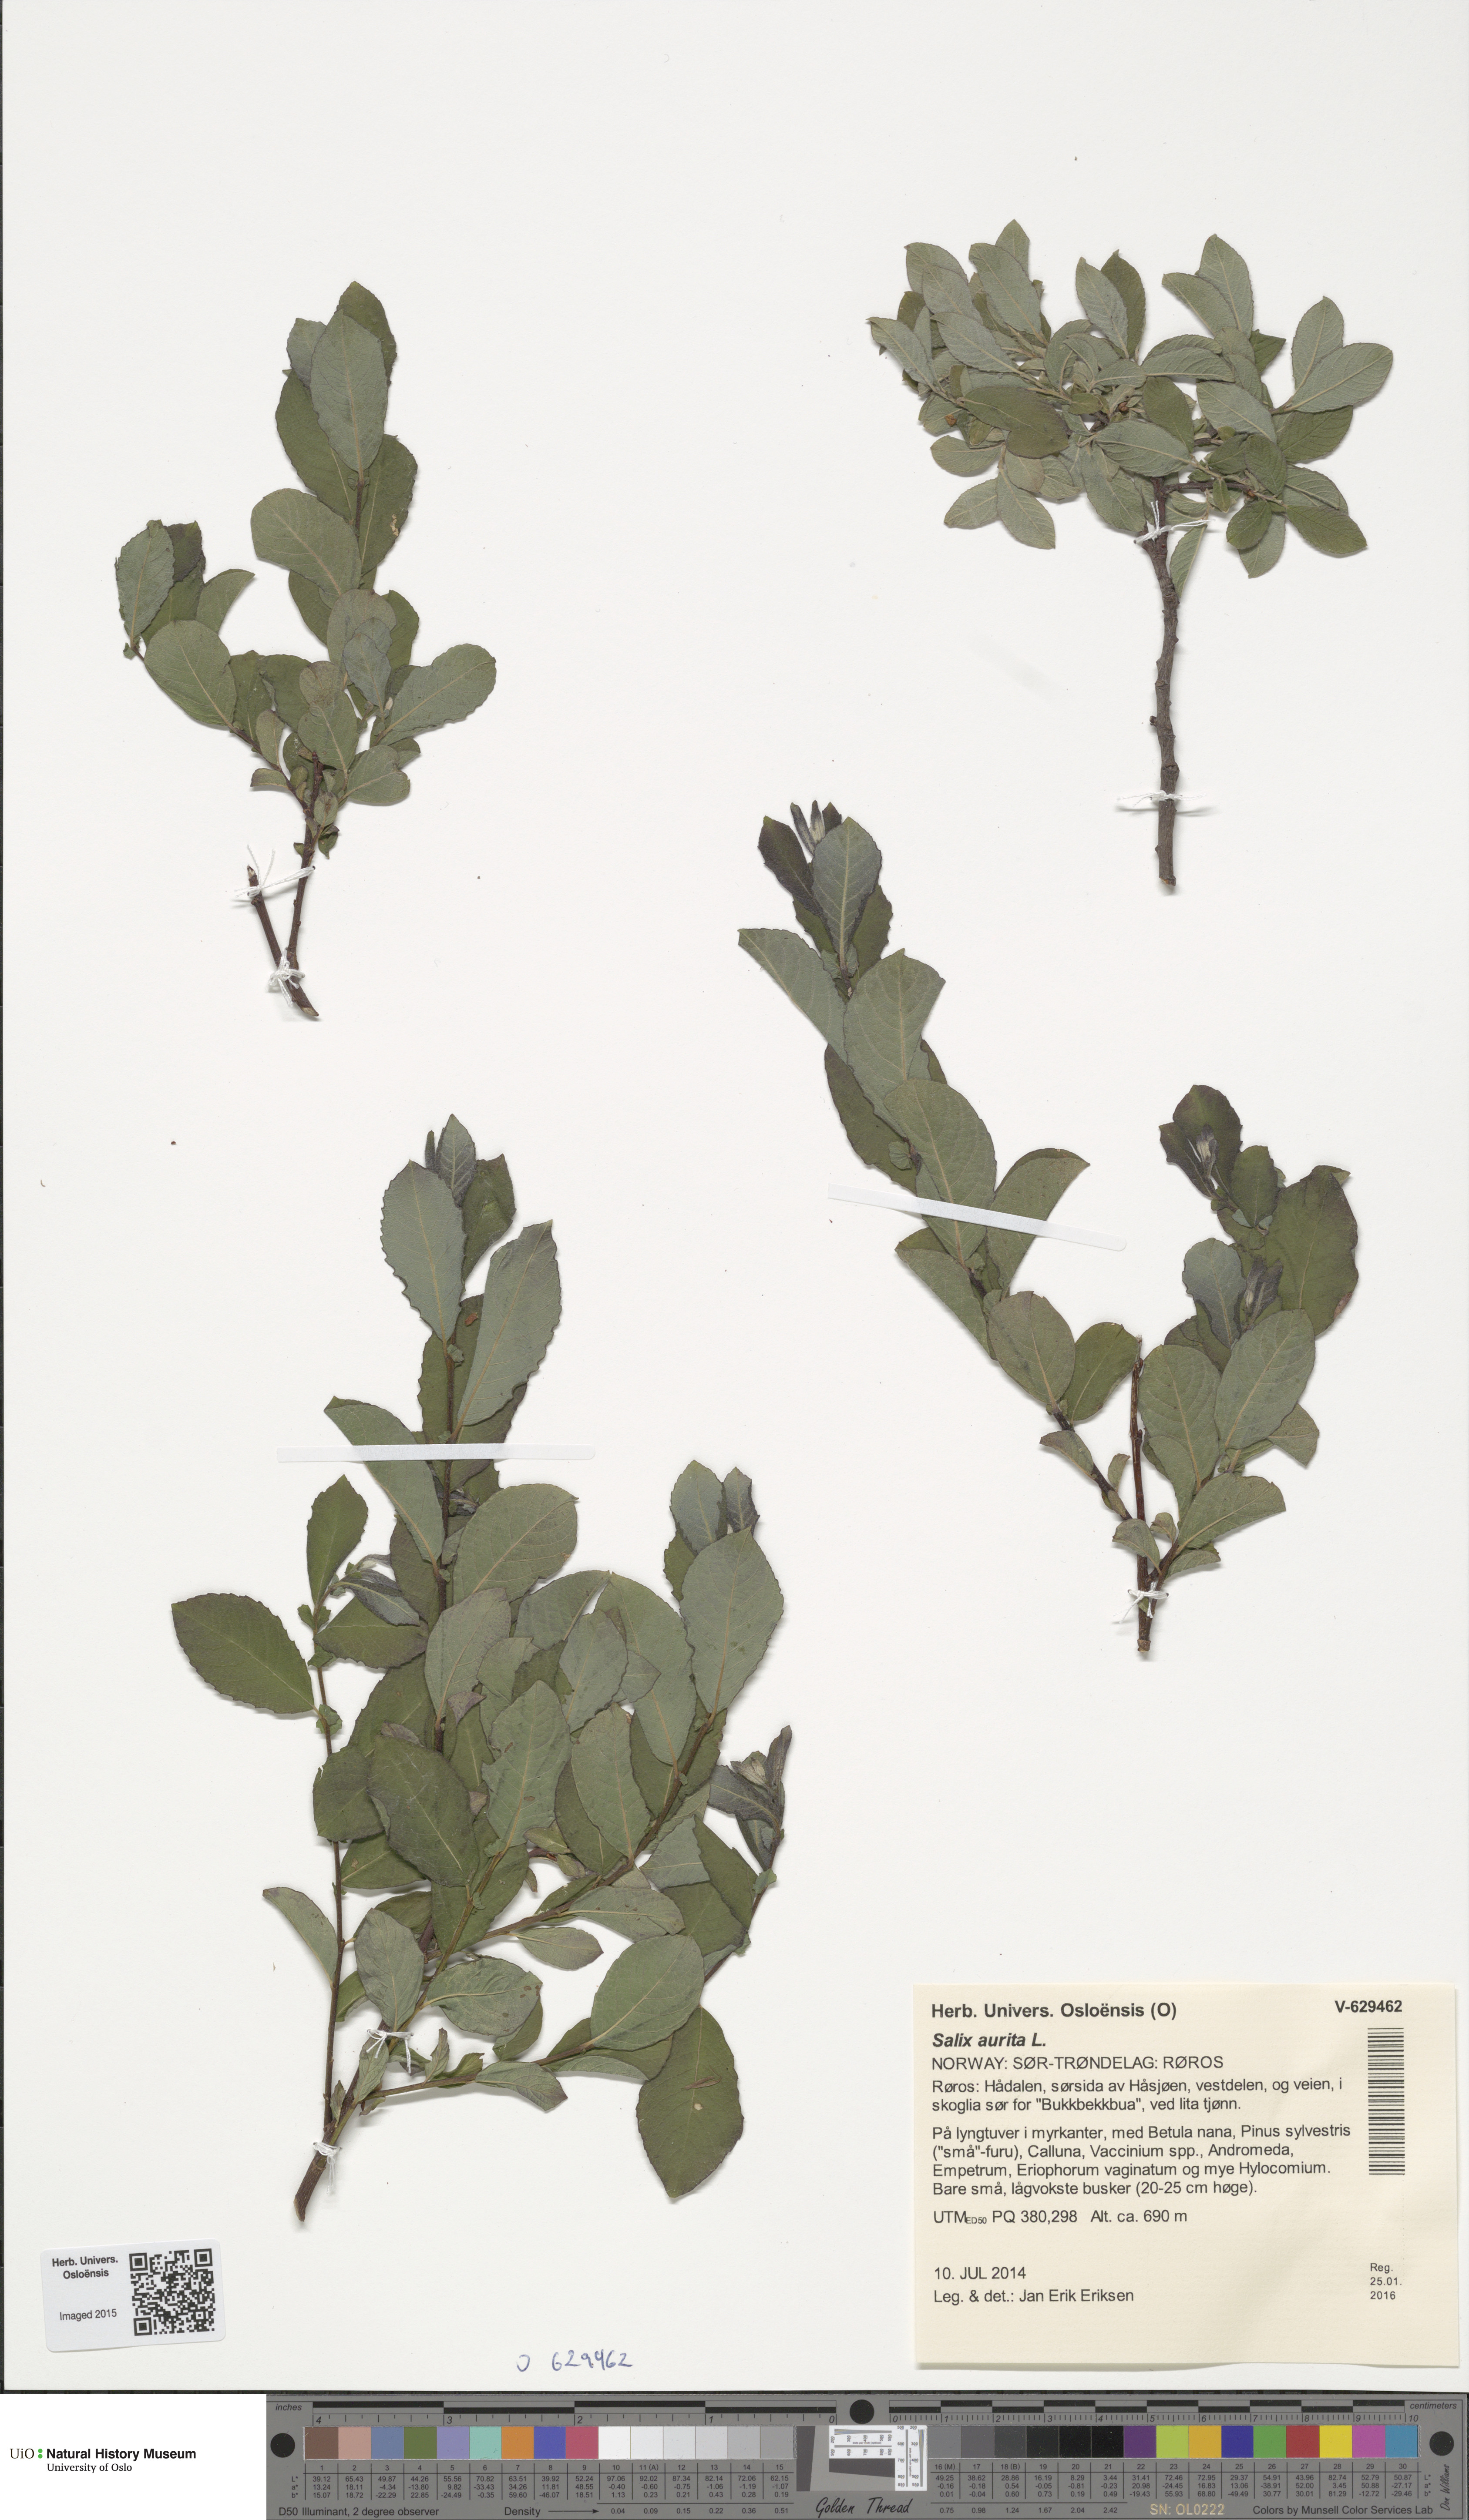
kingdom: Plantae
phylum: Tracheophyta
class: Magnoliopsida
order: Malpighiales
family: Salicaceae
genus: Salix
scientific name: Salix aurita
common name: Eared willow
